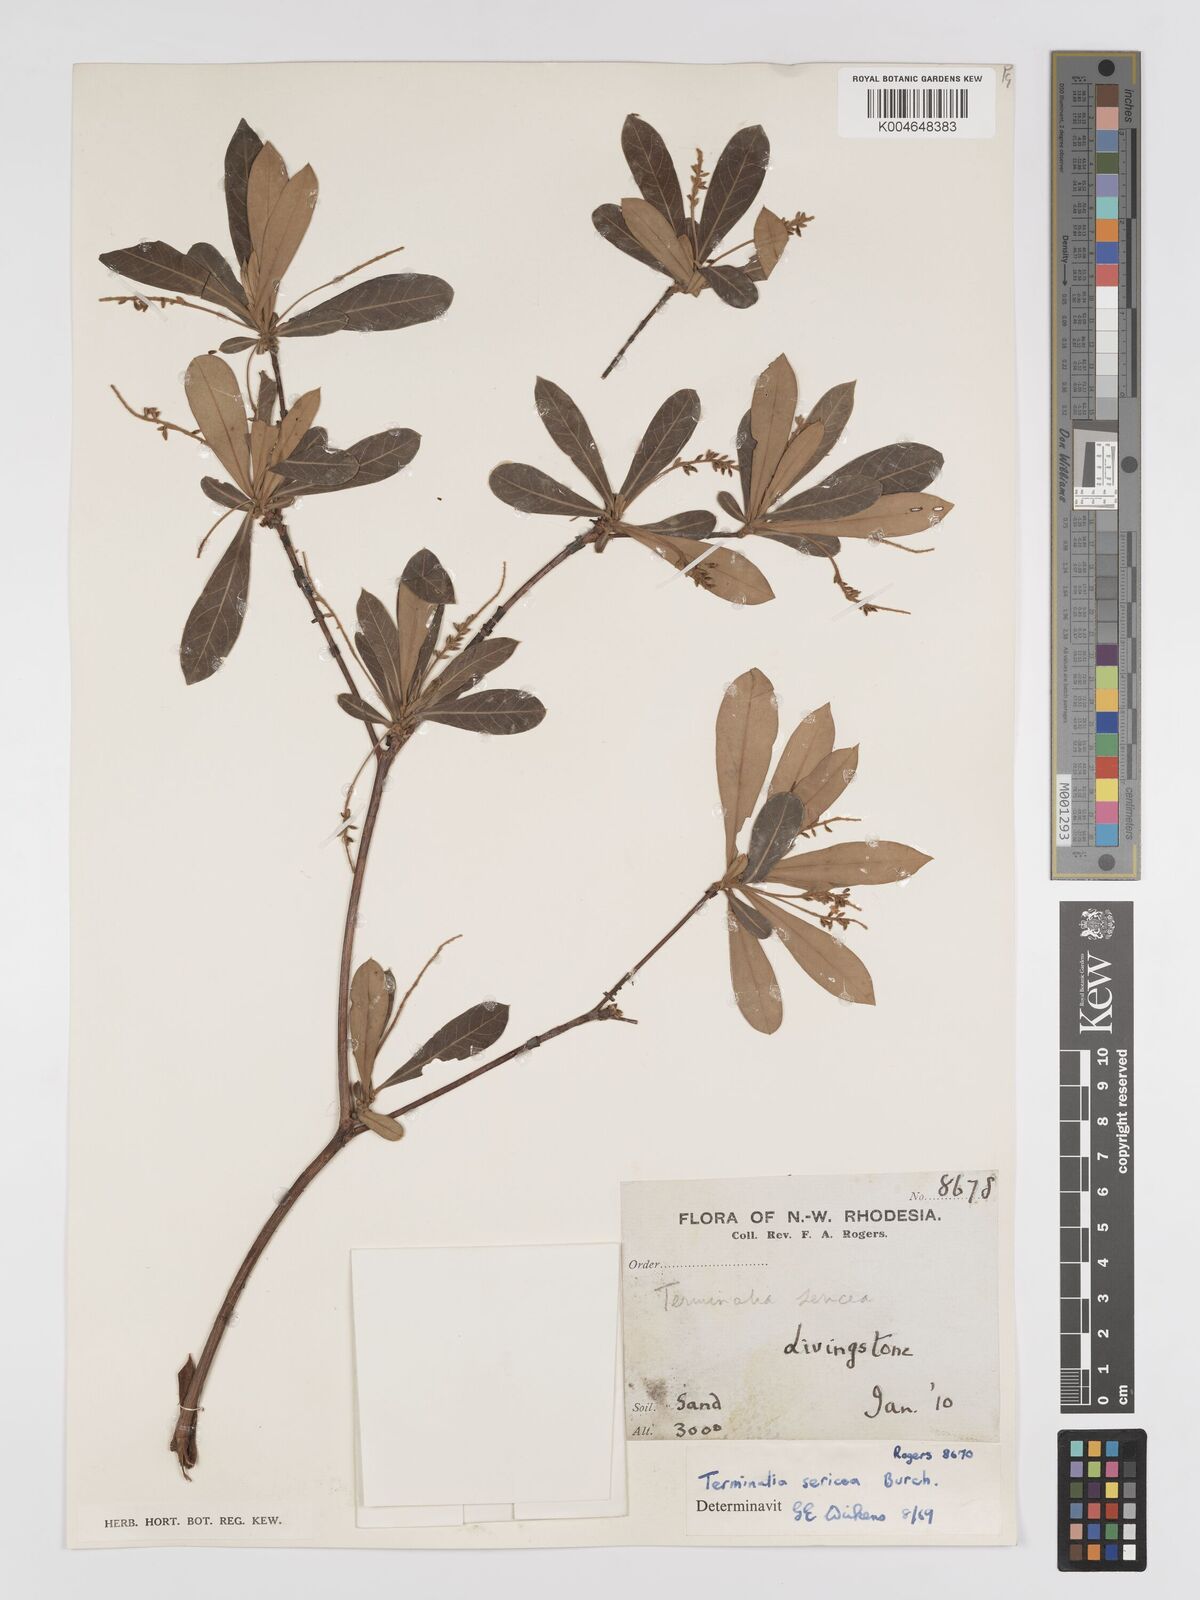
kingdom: Plantae
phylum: Tracheophyta
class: Magnoliopsida
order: Myrtales
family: Combretaceae
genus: Terminalia
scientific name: Terminalia
